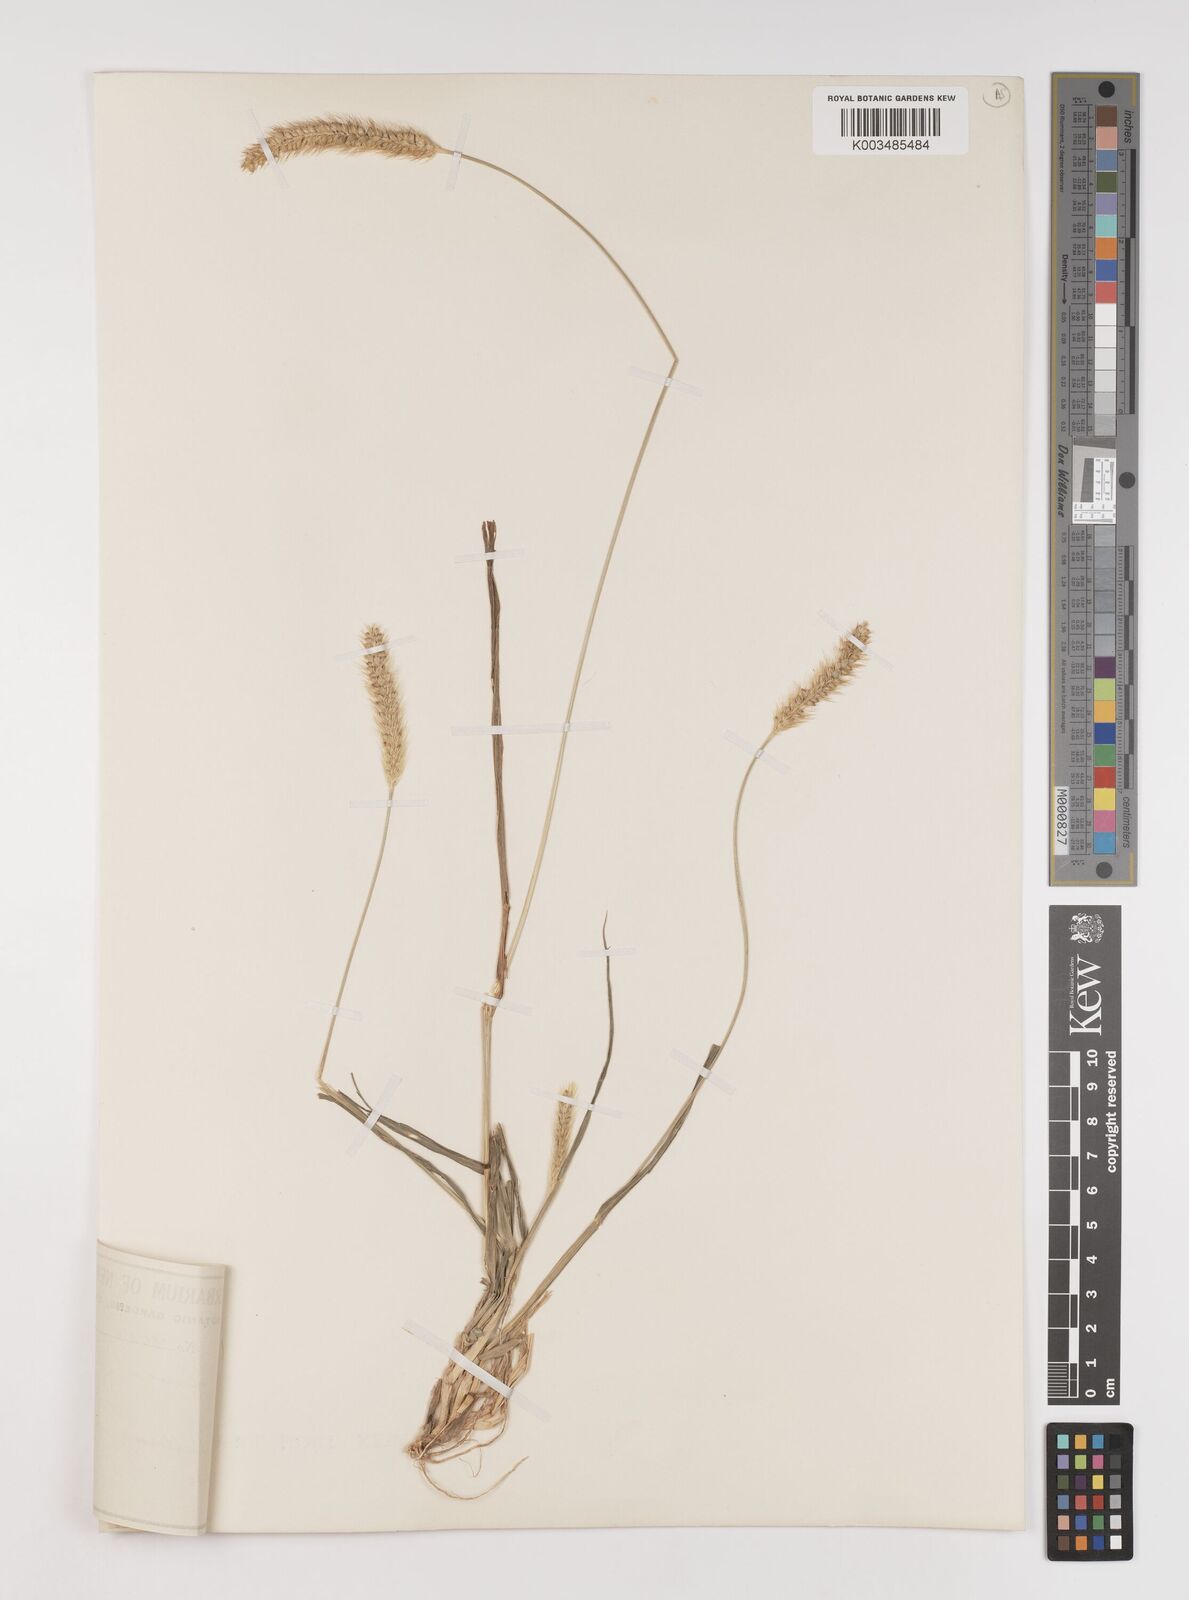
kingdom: Plantae
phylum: Tracheophyta
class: Liliopsida
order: Poales
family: Poaceae
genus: Setaria
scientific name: Setaria pumila
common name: Yellow bristle-grass
